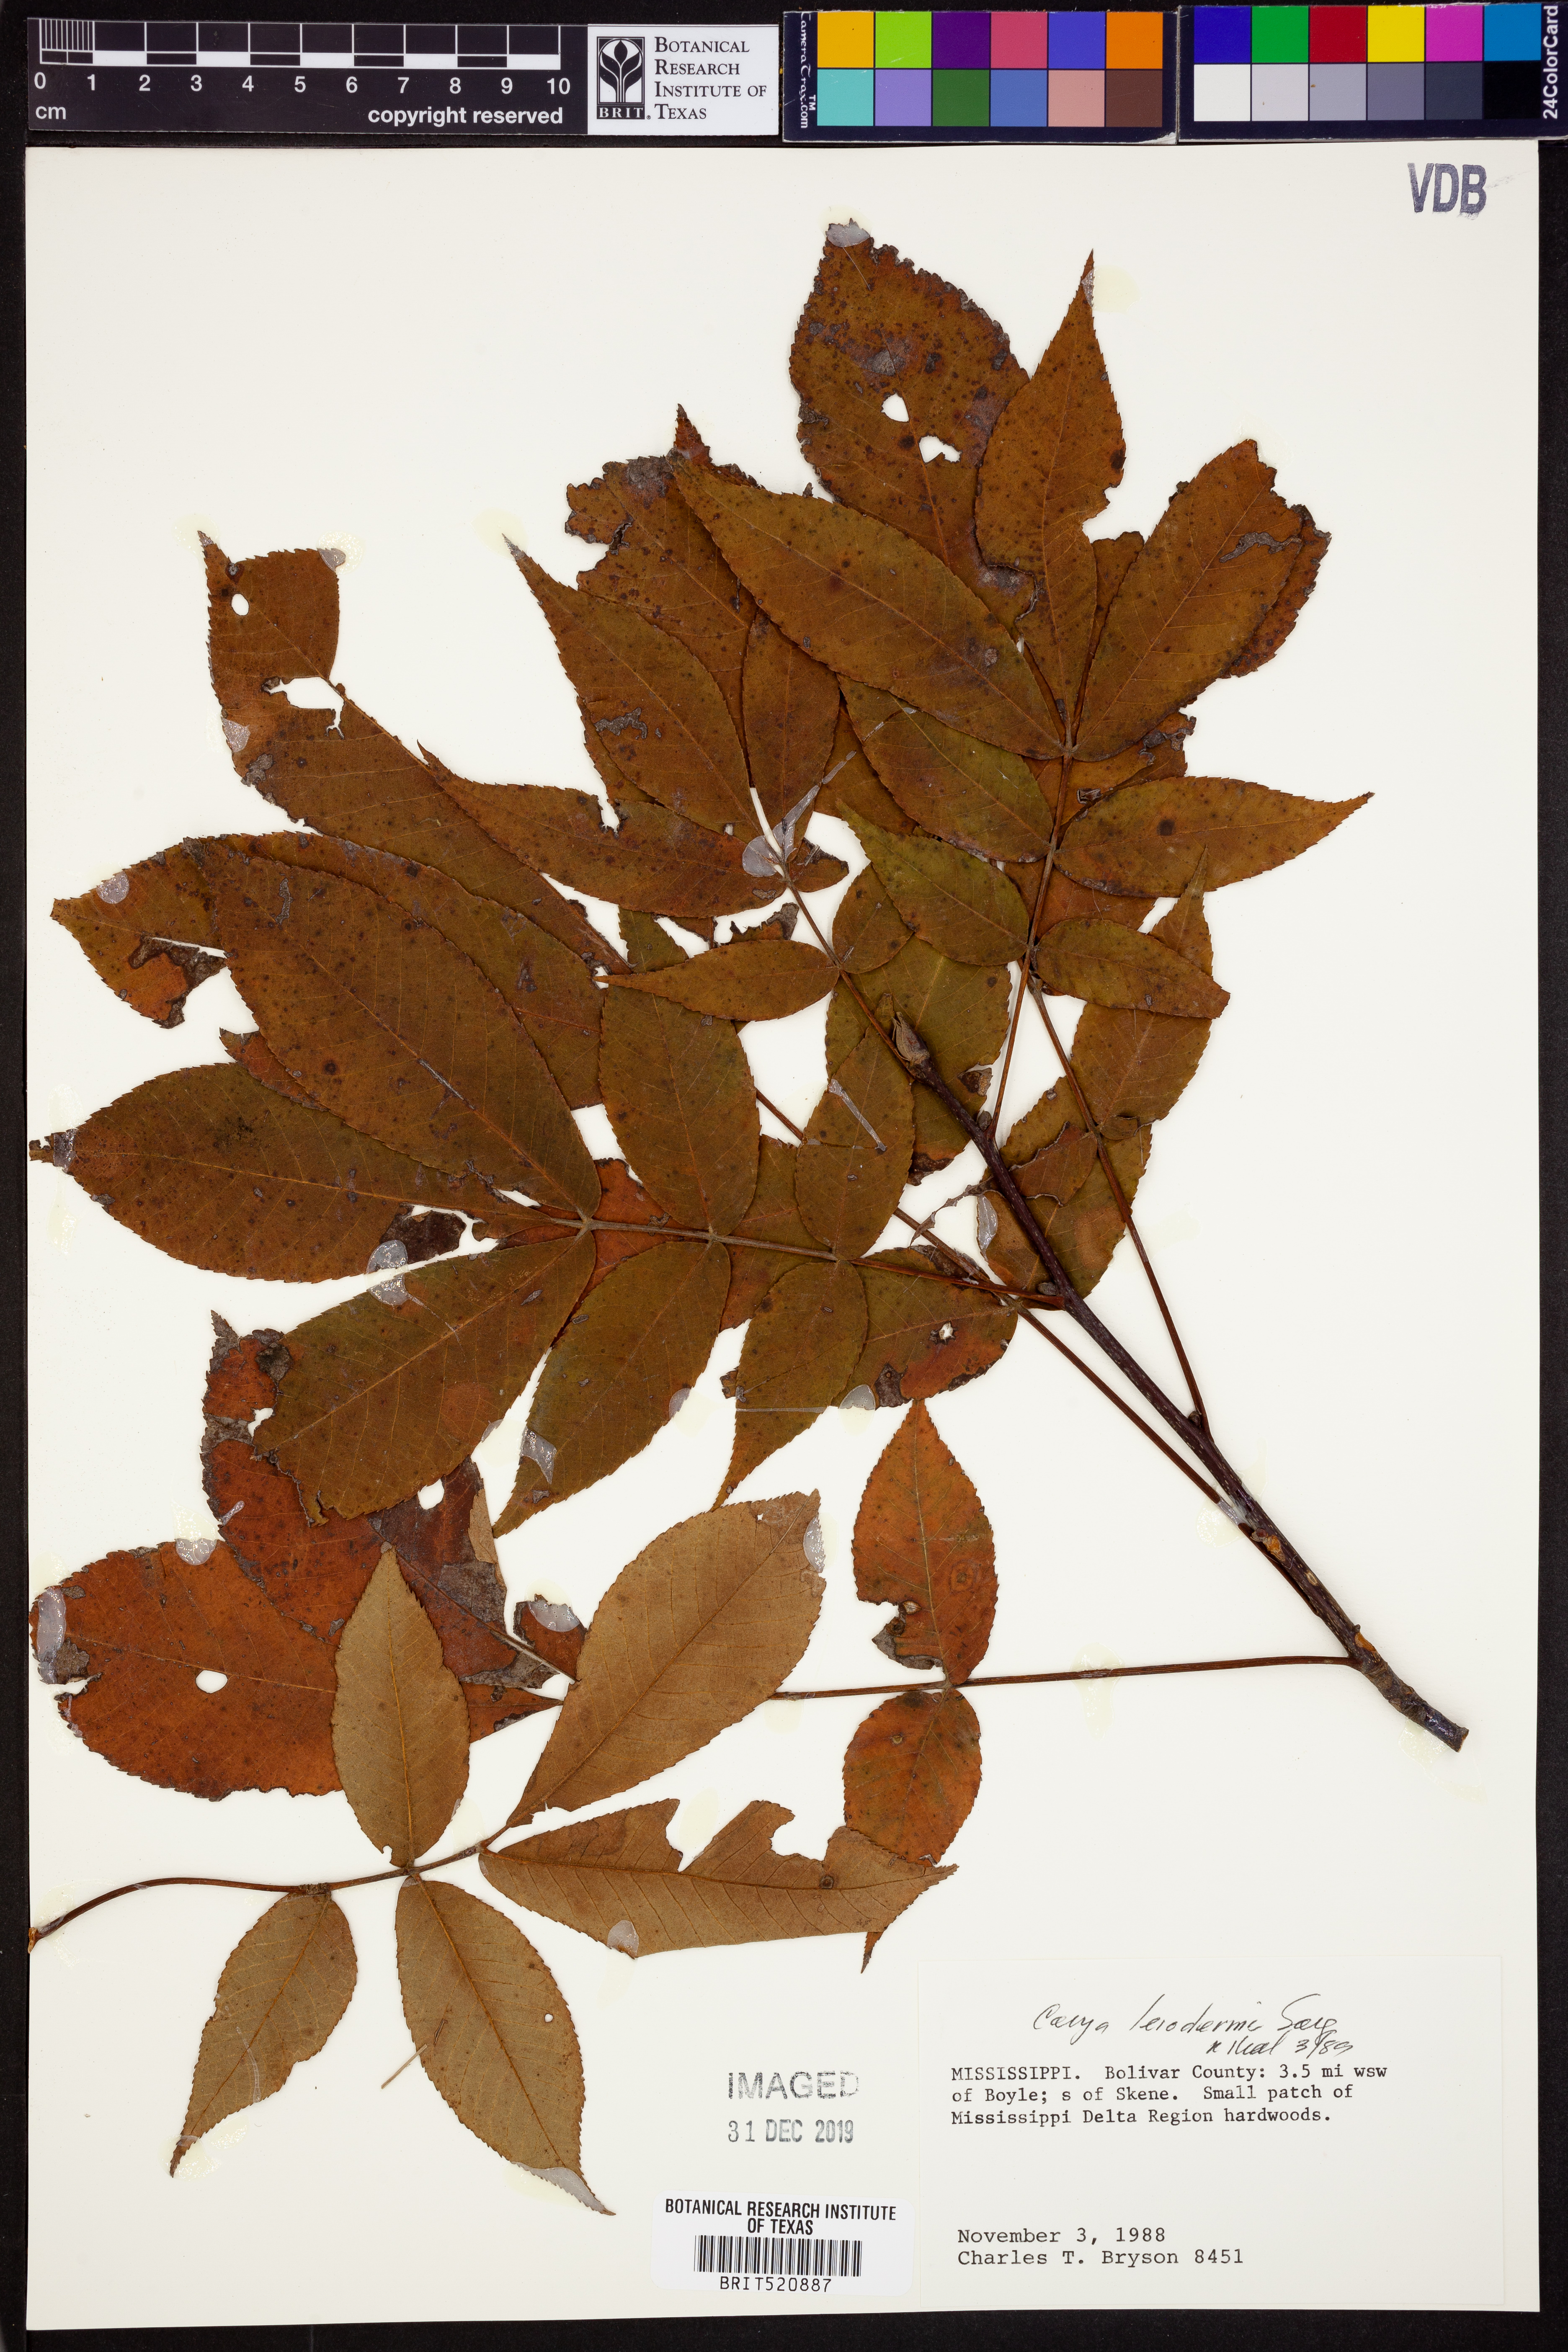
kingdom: Plantae
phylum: Tracheophyta
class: Magnoliopsida
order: Fagales
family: Juglandaceae
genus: Carya
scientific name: Carya glabra
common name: Pignut hickory
